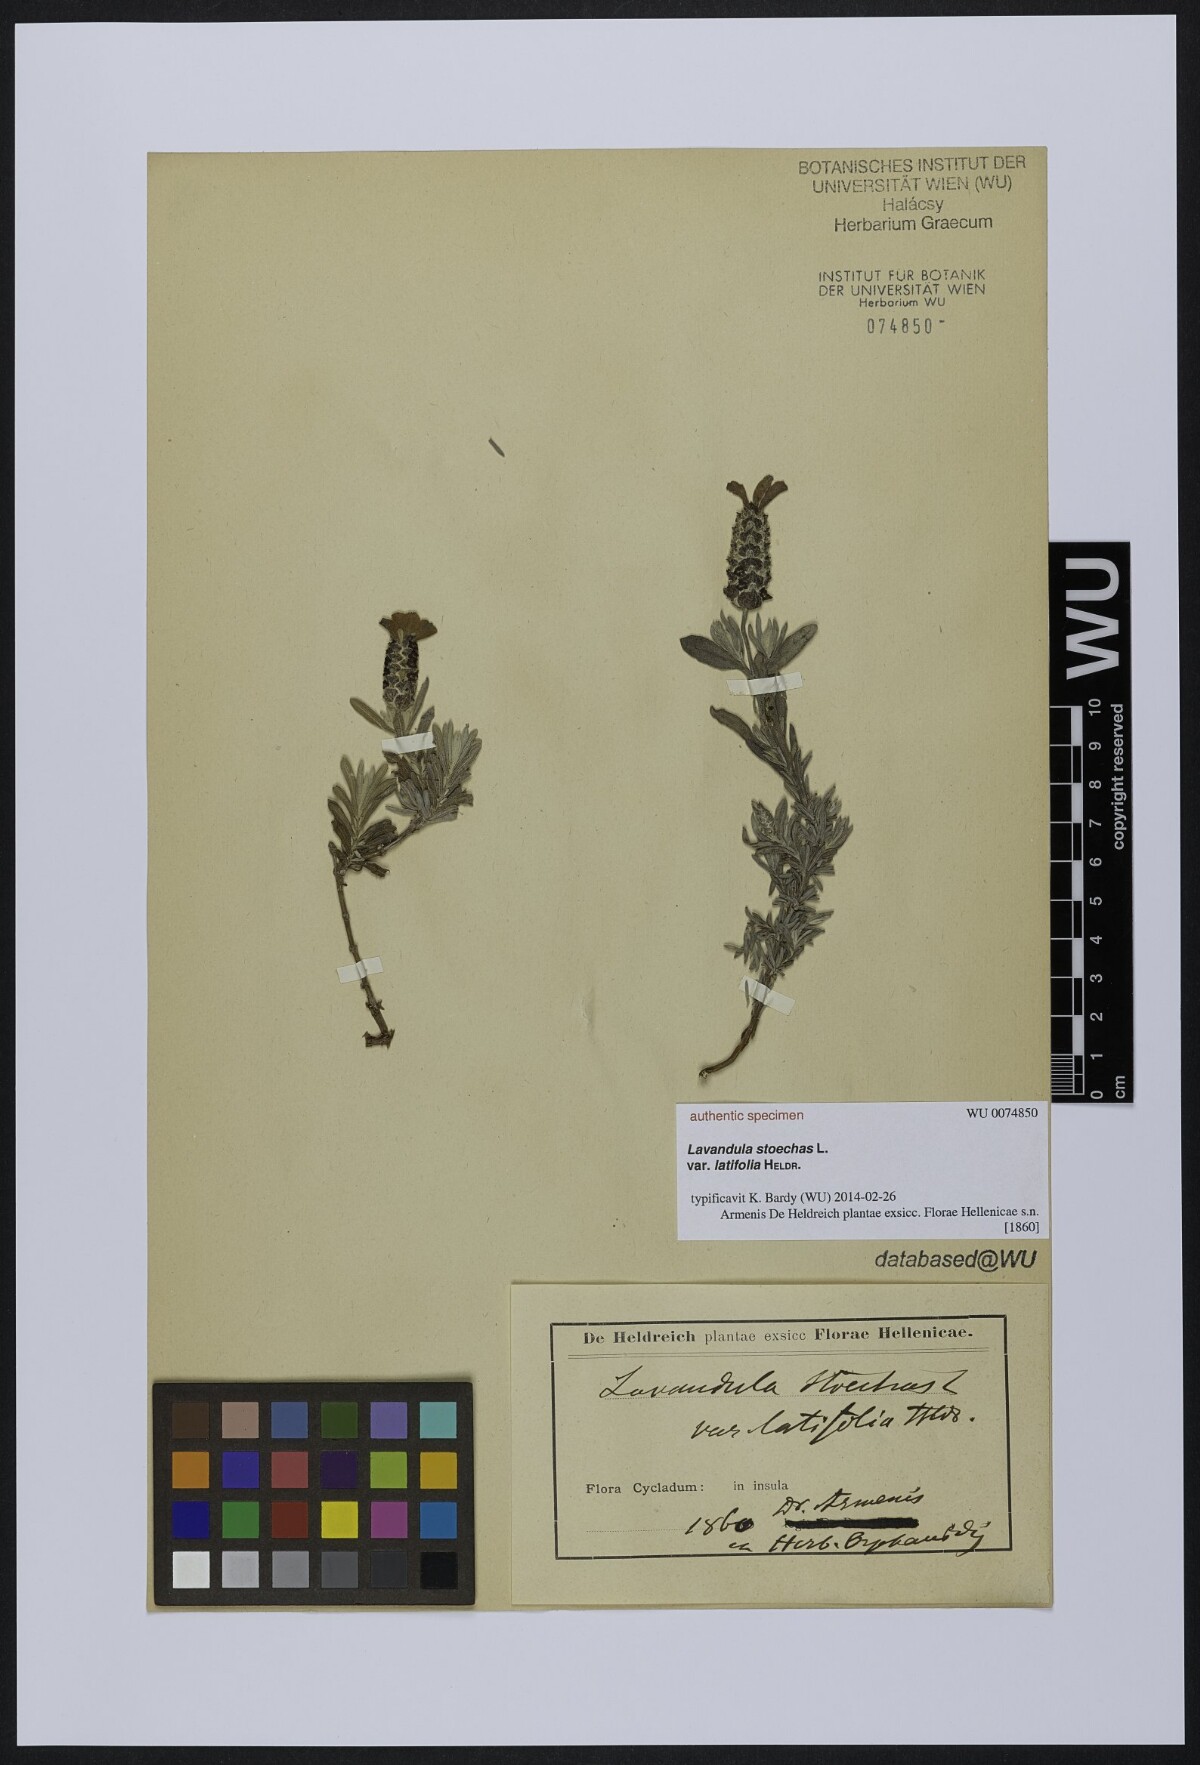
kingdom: Plantae
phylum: Tracheophyta
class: Magnoliopsida
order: Lamiales
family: Lamiaceae
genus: Lavandula
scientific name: Lavandula stoechas
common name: French lavender
